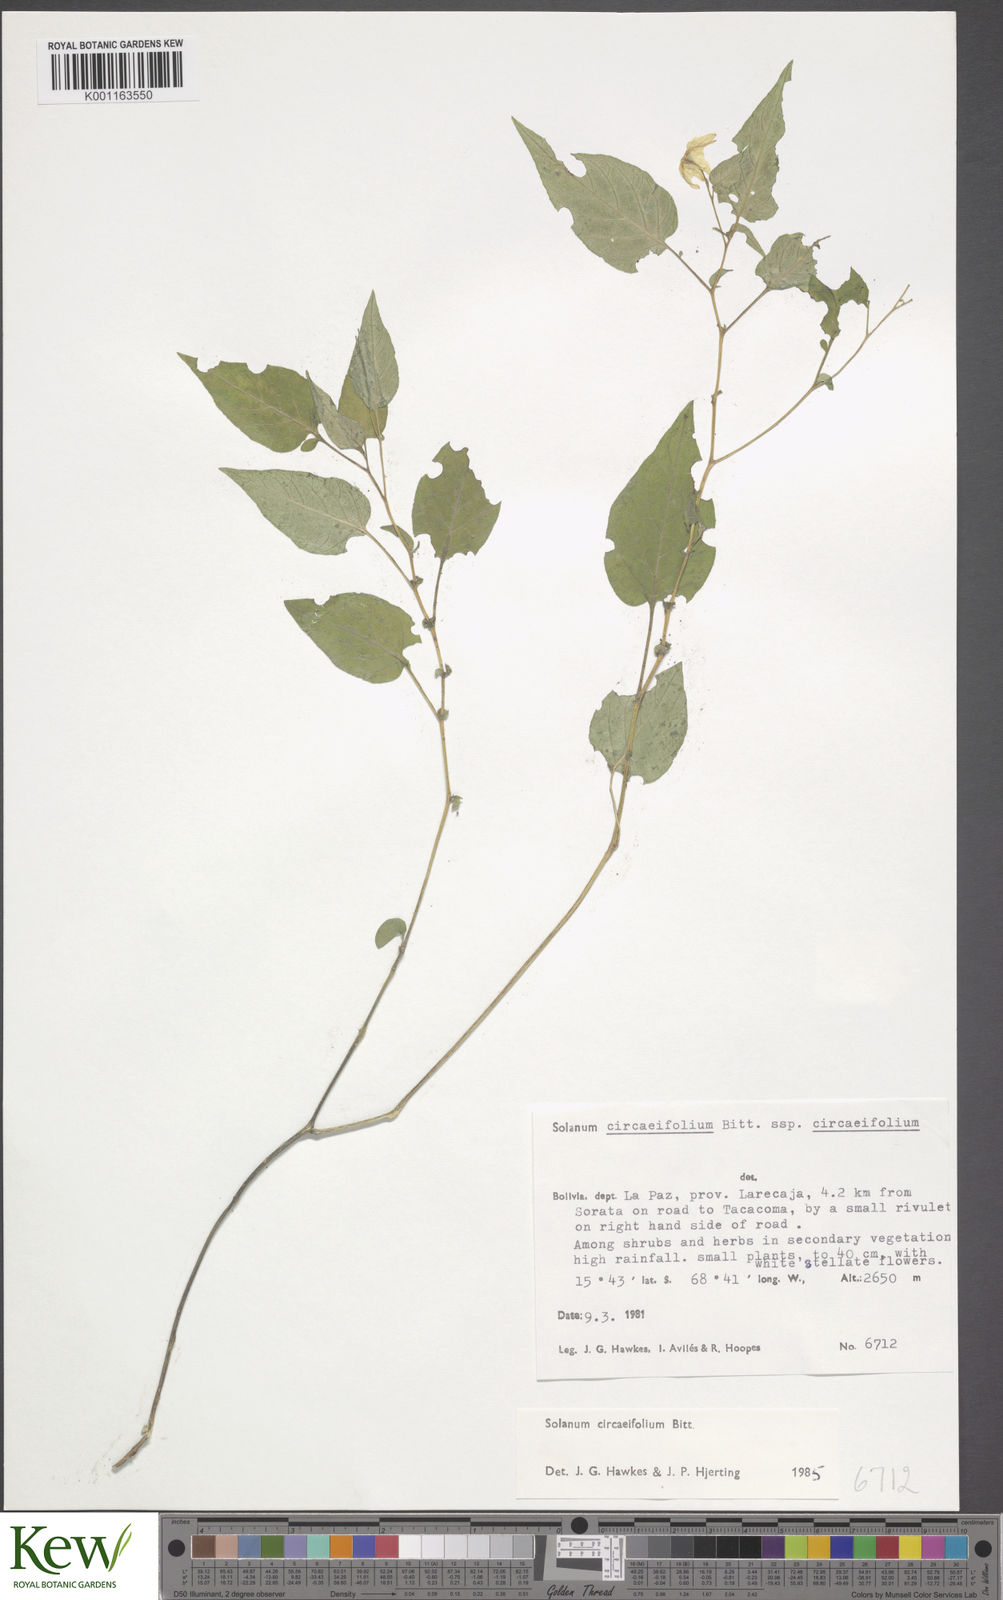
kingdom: Plantae
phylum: Tracheophyta
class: Magnoliopsida
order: Solanales
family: Solanaceae
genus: Solanum
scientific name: Solanum stipuloideum
